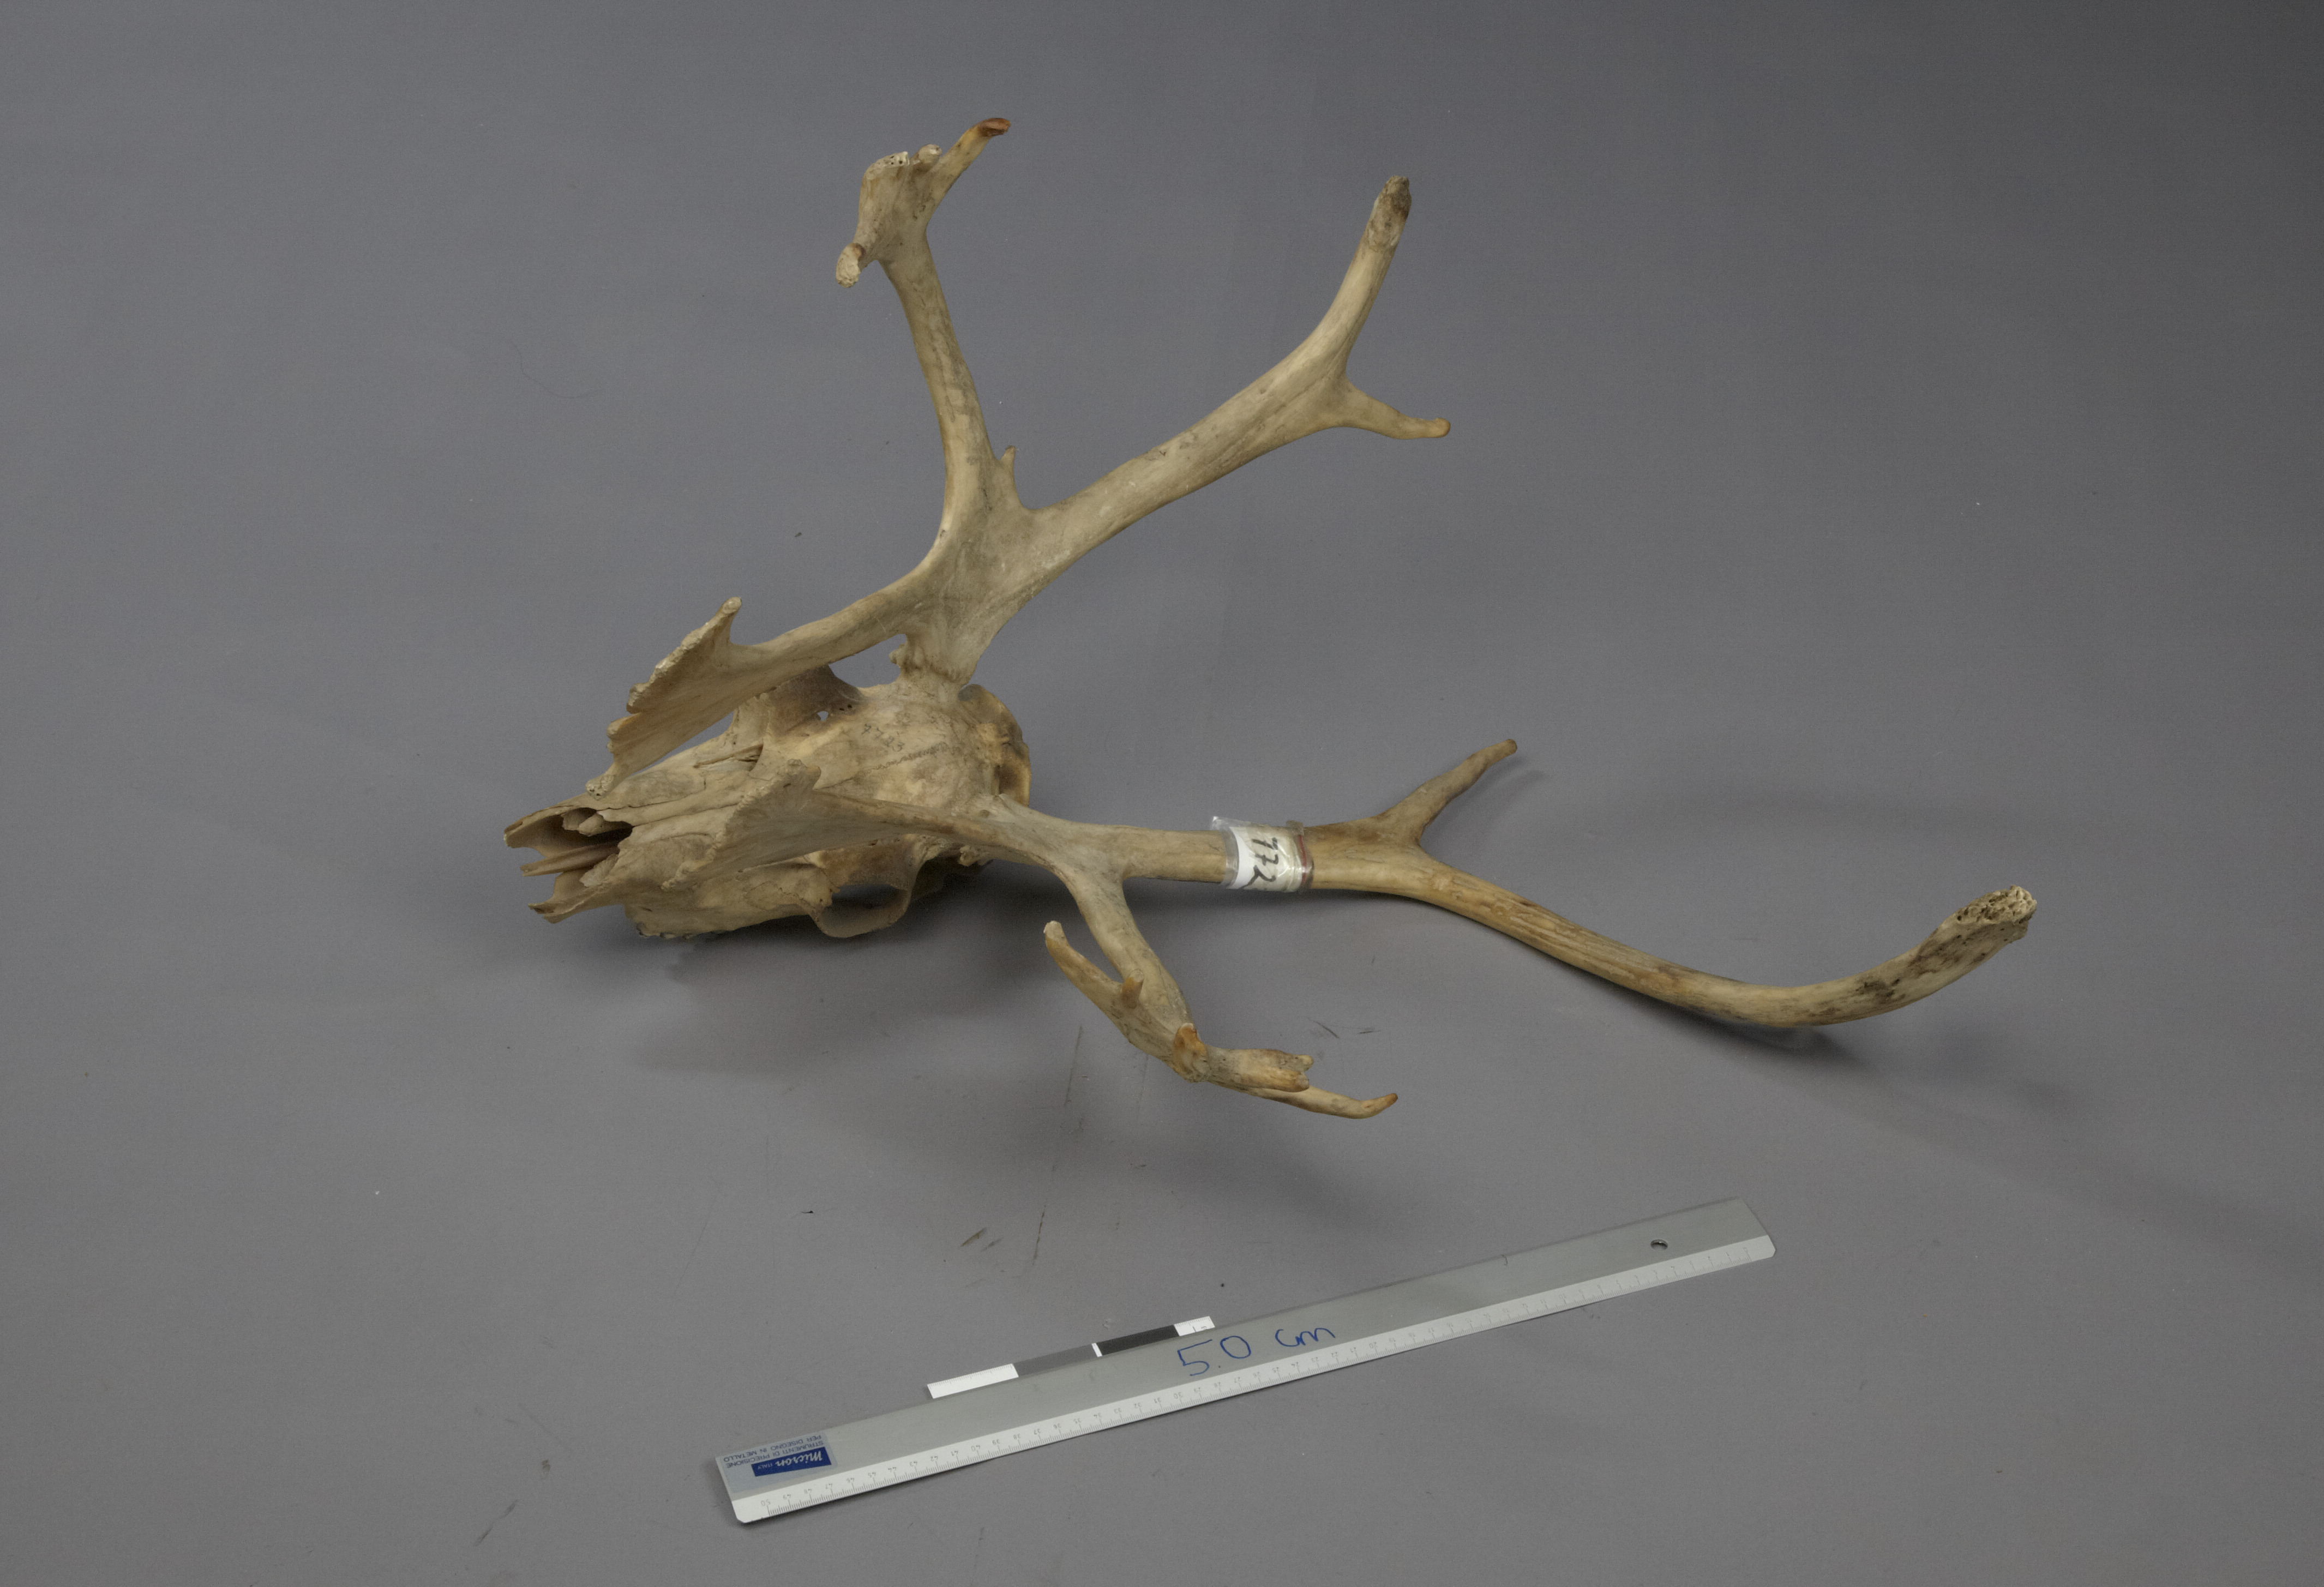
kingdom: Animalia
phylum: Chordata
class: Mammalia
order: Artiodactyla
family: Cervidae
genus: Rangifer
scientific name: Rangifer tarandus
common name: Reindeer
